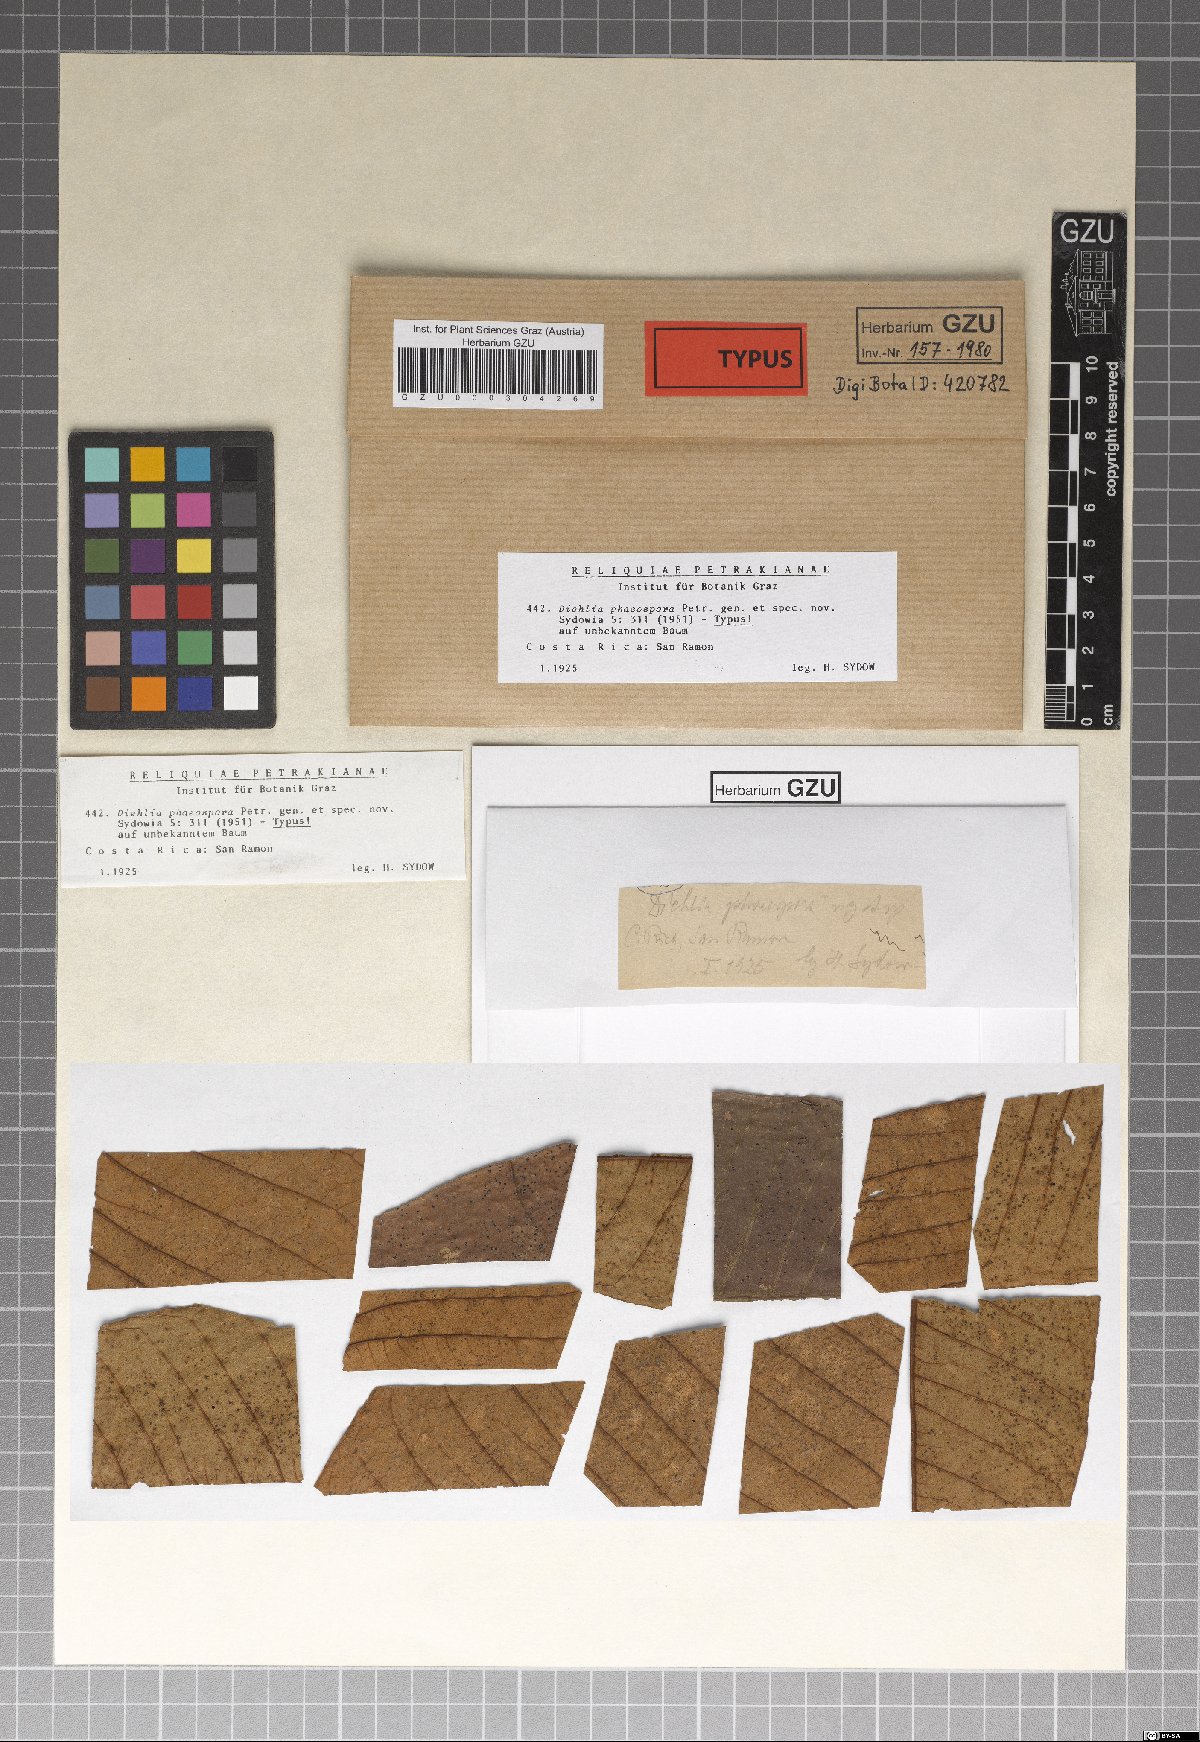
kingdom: Fungi
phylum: Ascomycota
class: Leotiomycetes
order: Helotiales
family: Gelatinodiscaceae
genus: Diehlia
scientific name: Diehlia phaeospora
